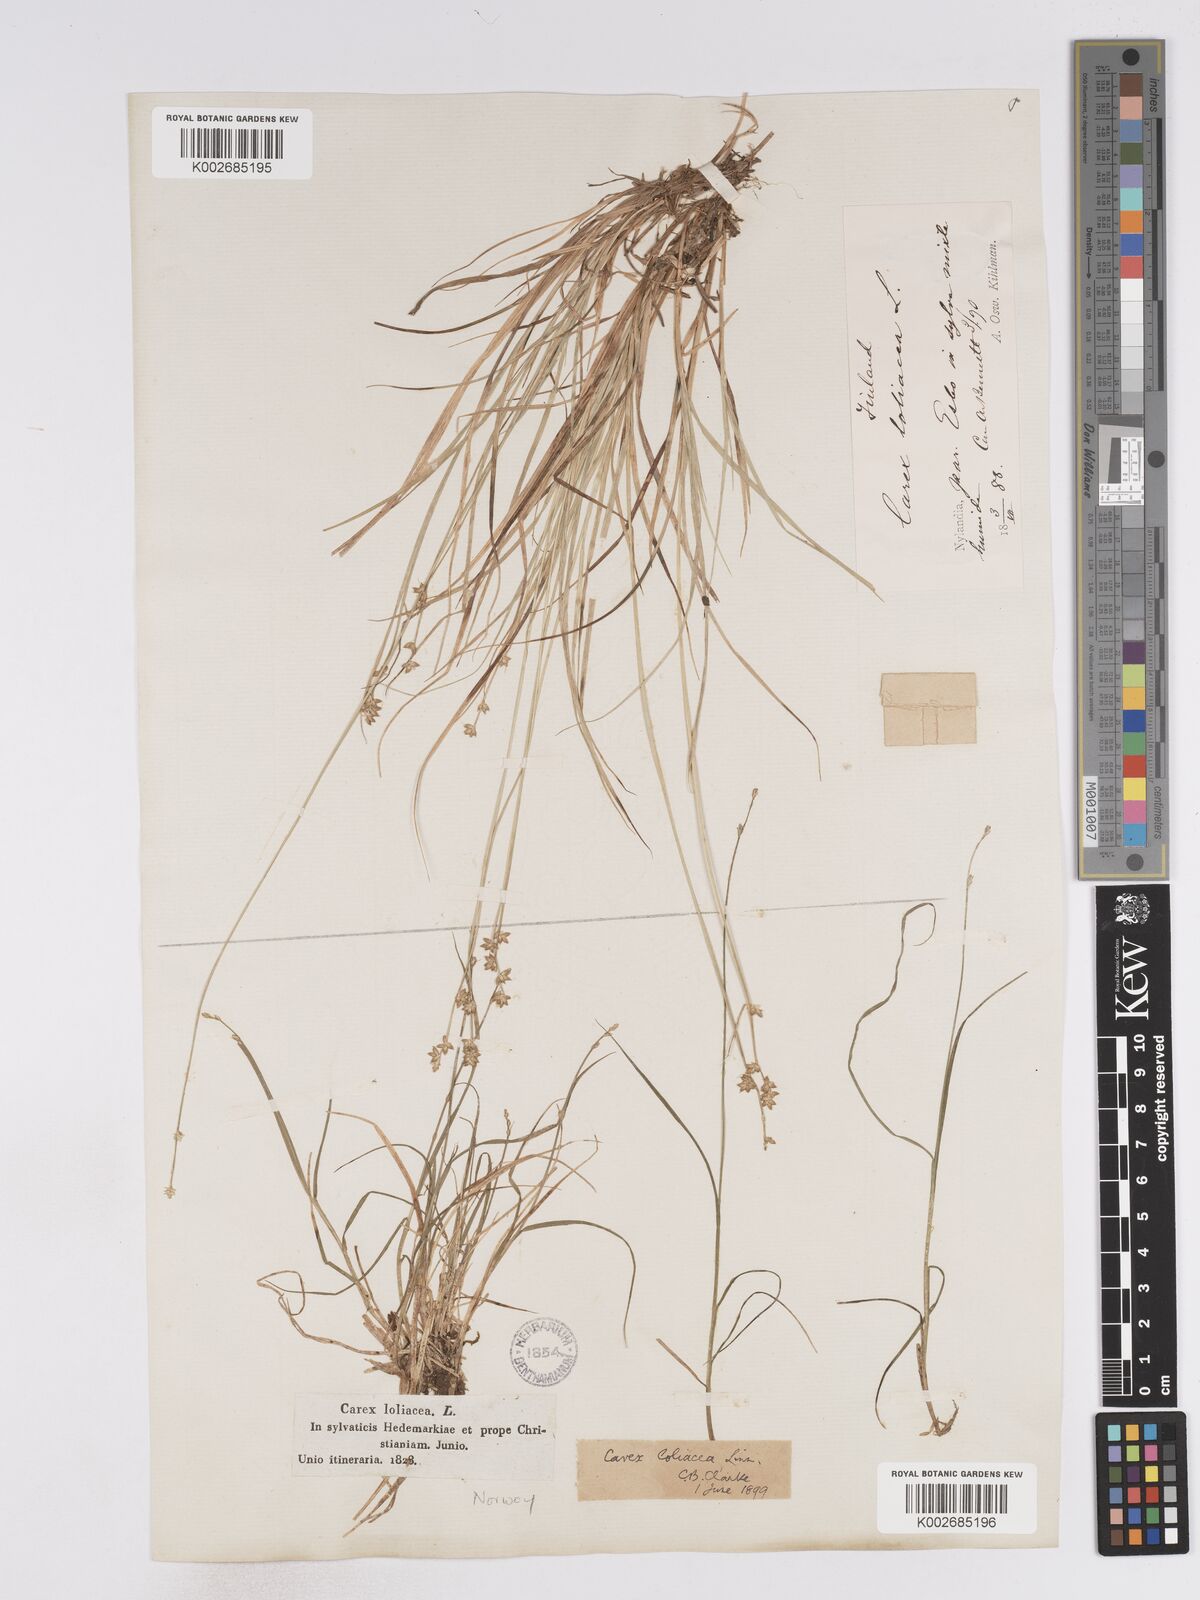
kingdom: Plantae
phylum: Tracheophyta
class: Liliopsida
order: Poales
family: Cyperaceae
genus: Carex
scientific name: Carex loliacea
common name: Ryegrass sedge
